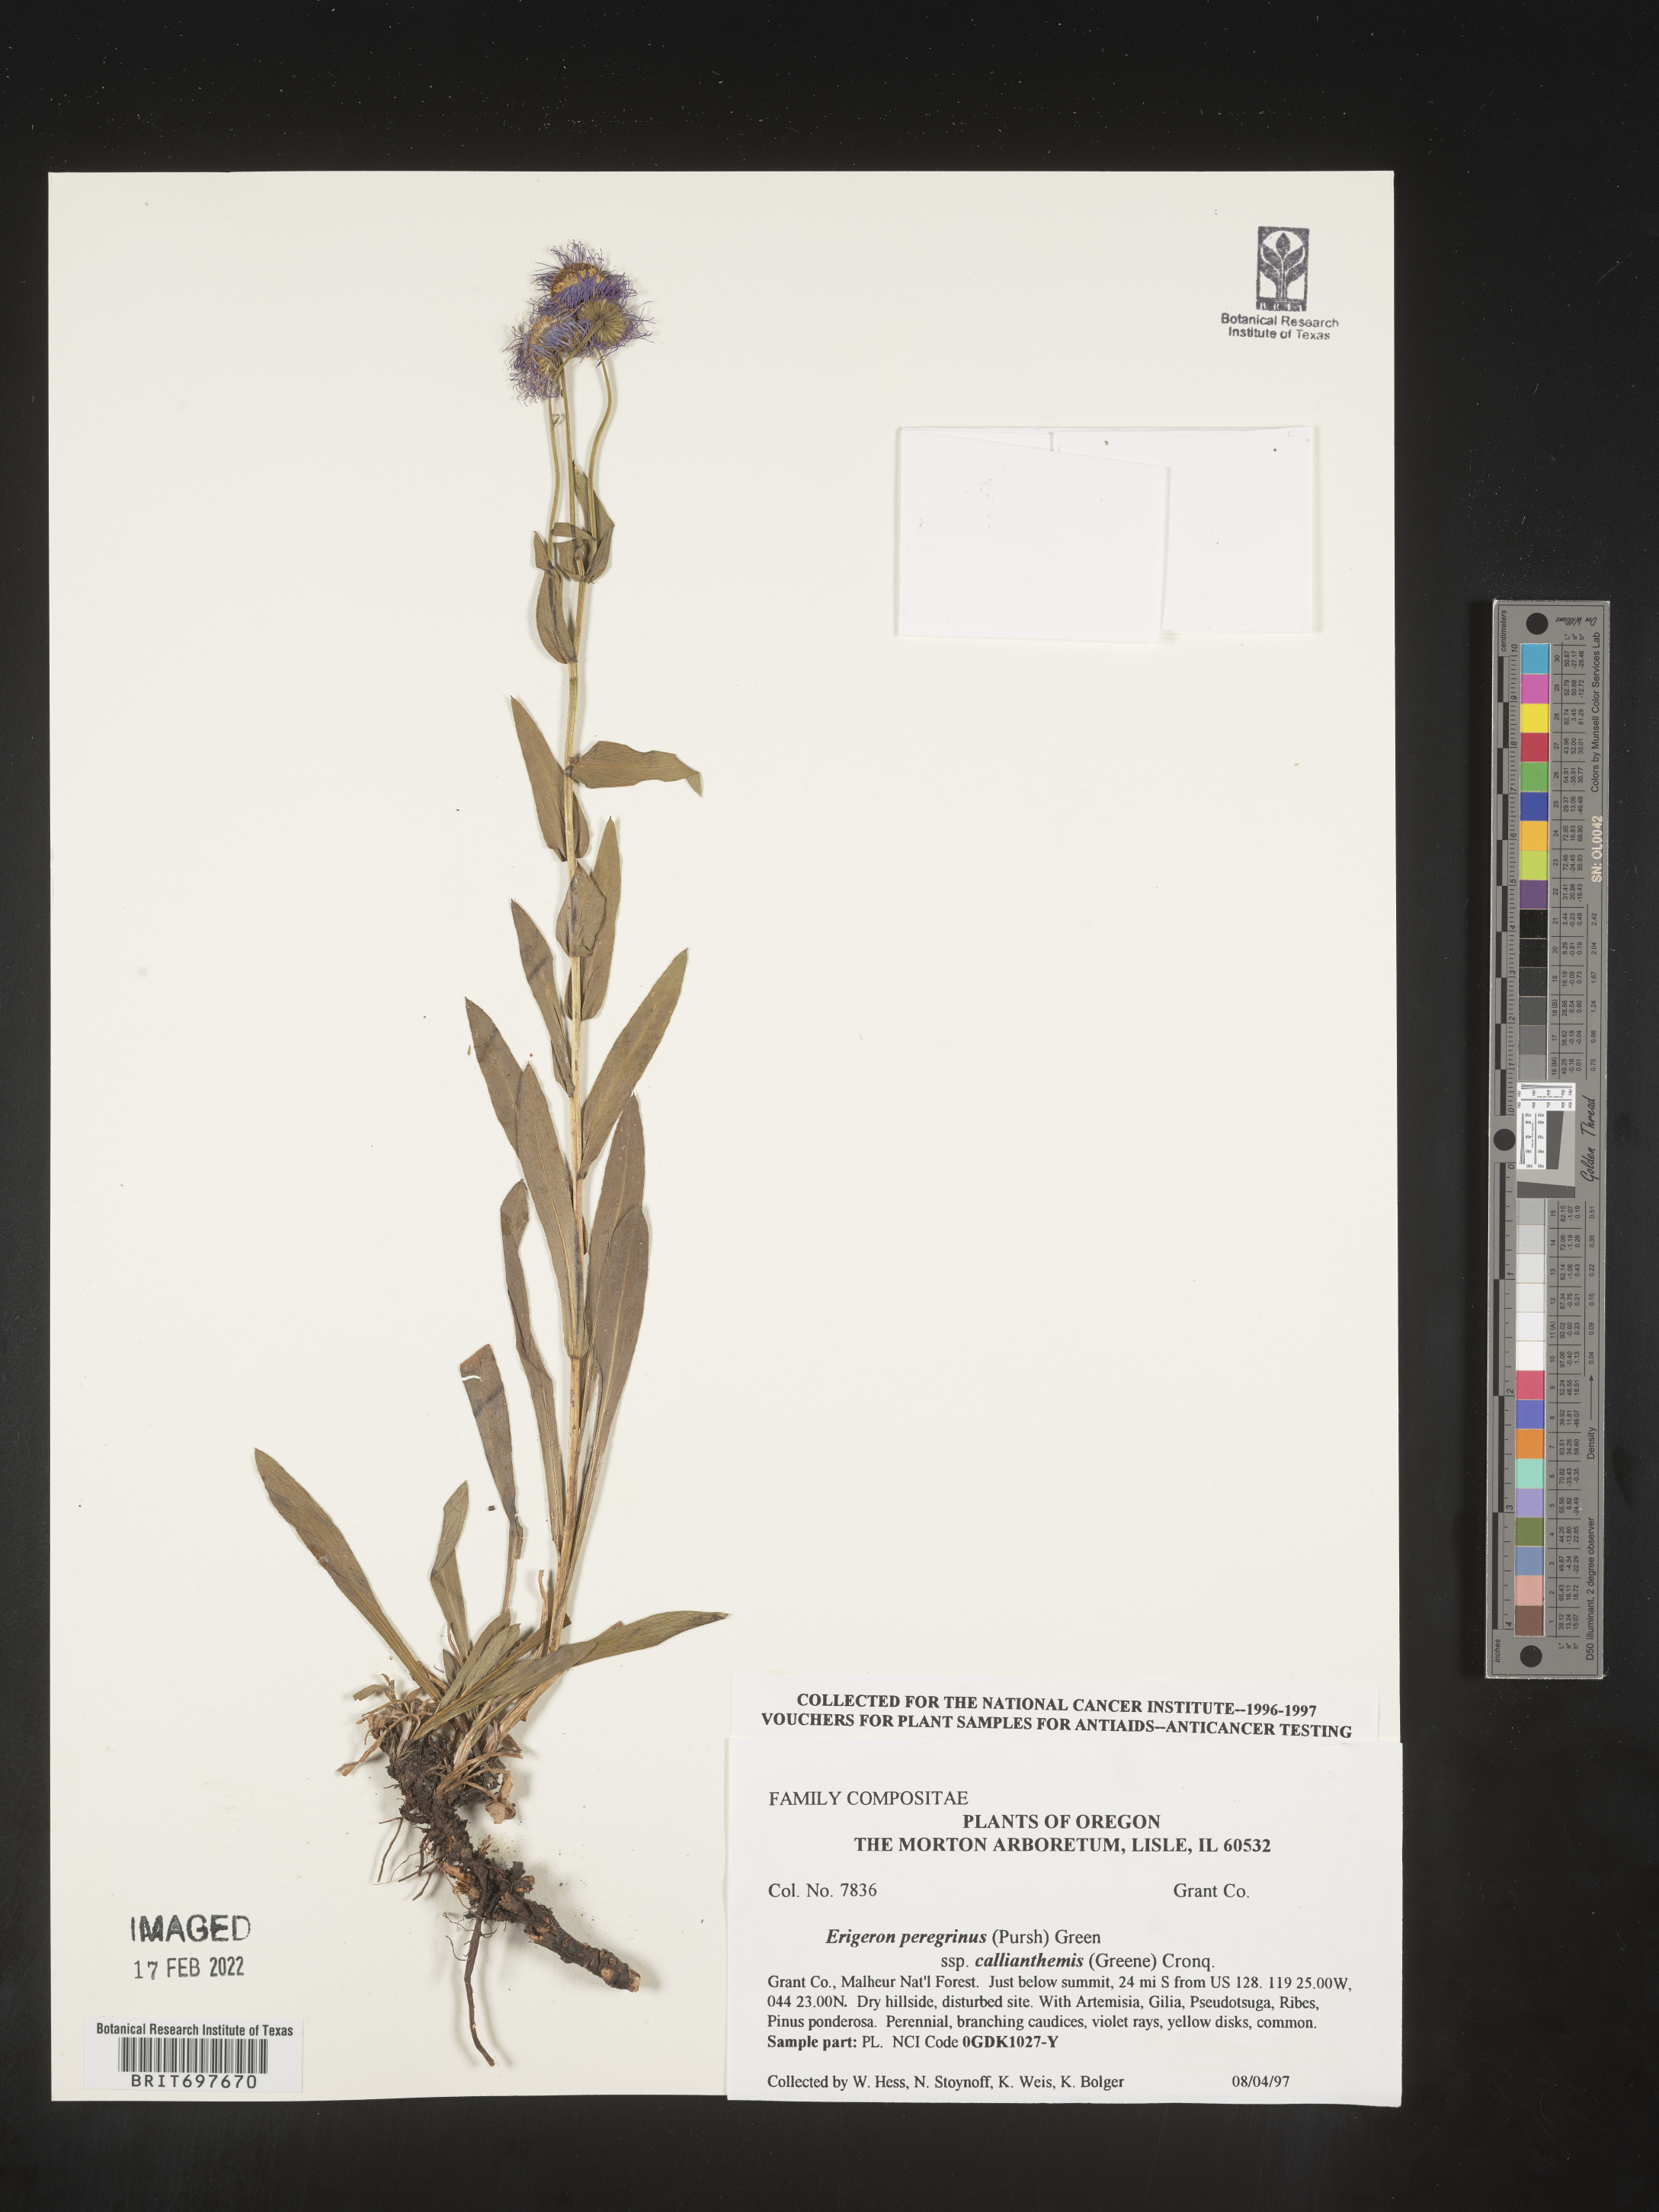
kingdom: Plantae
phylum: Tracheophyta
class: Magnoliopsida
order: Asterales
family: Asteraceae
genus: Erigeron
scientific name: Erigeron glacialis
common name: Subalpine fleabane
